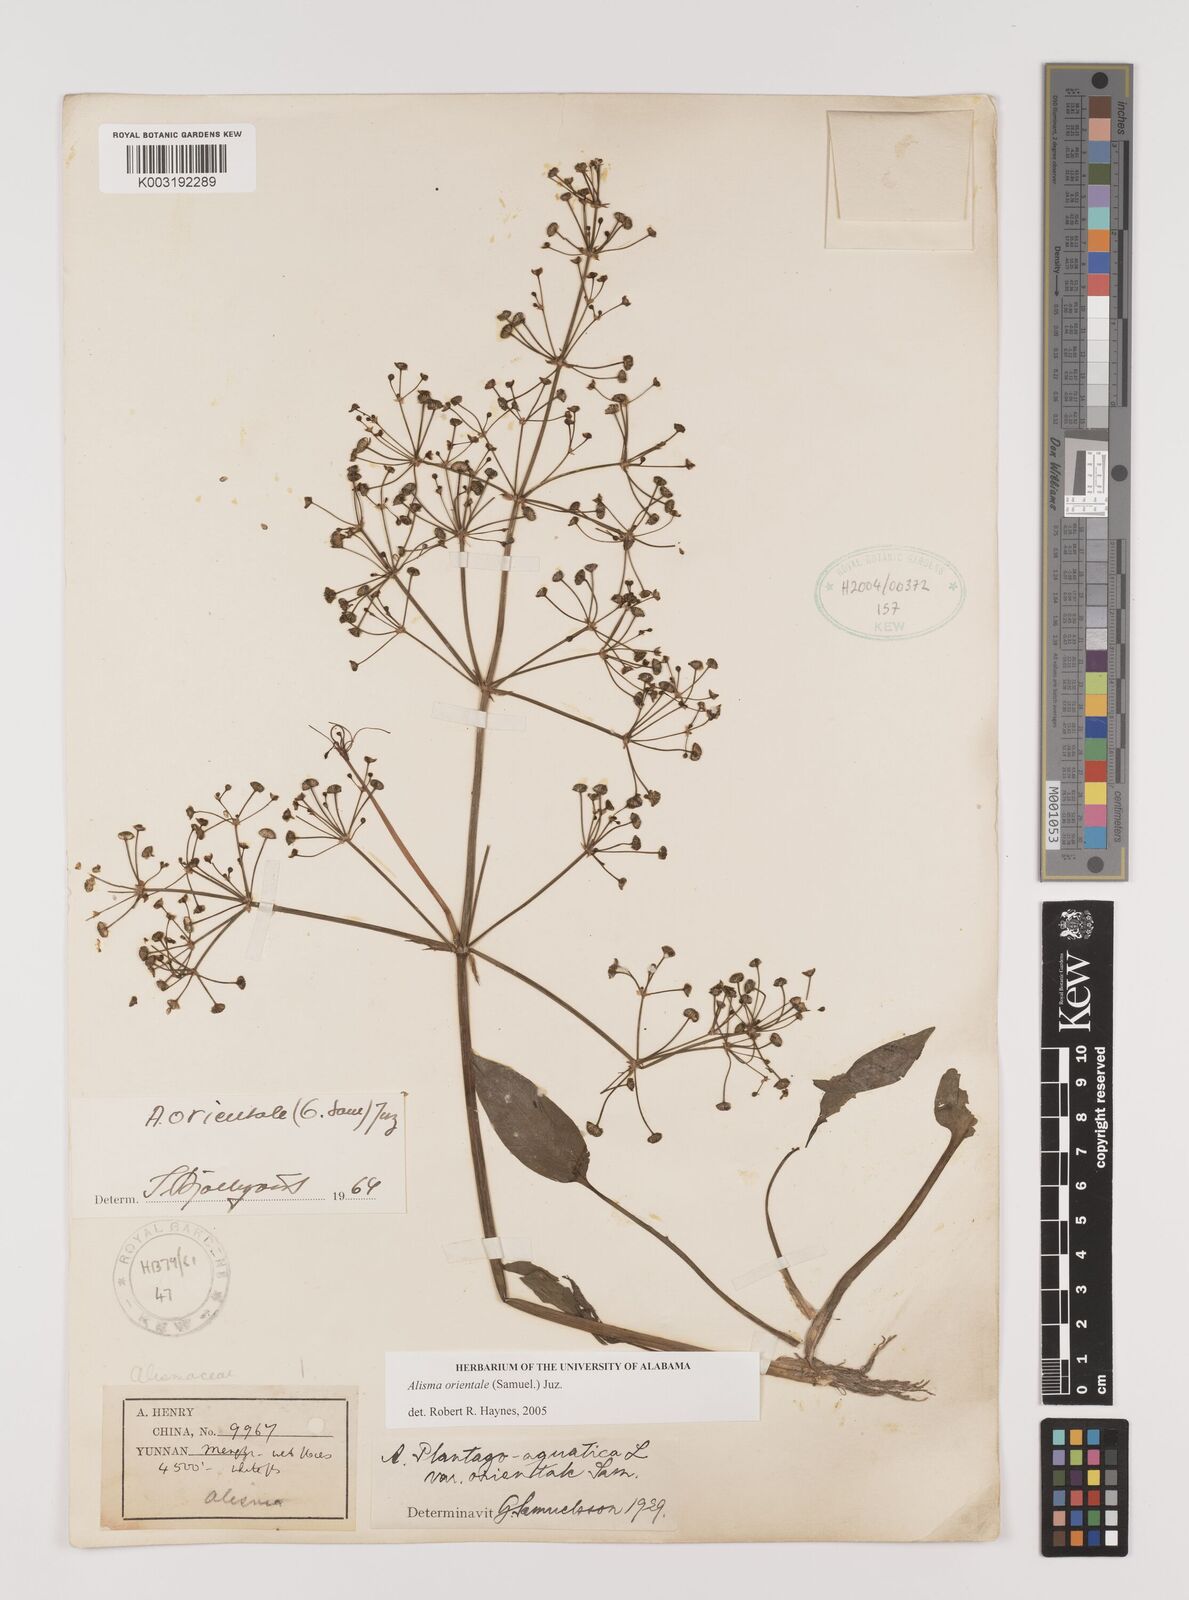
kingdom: Plantae
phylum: Tracheophyta
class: Liliopsida
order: Alismatales
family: Alismataceae
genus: Alisma
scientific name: Alisma plantago-aquatica
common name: Water-plantain
